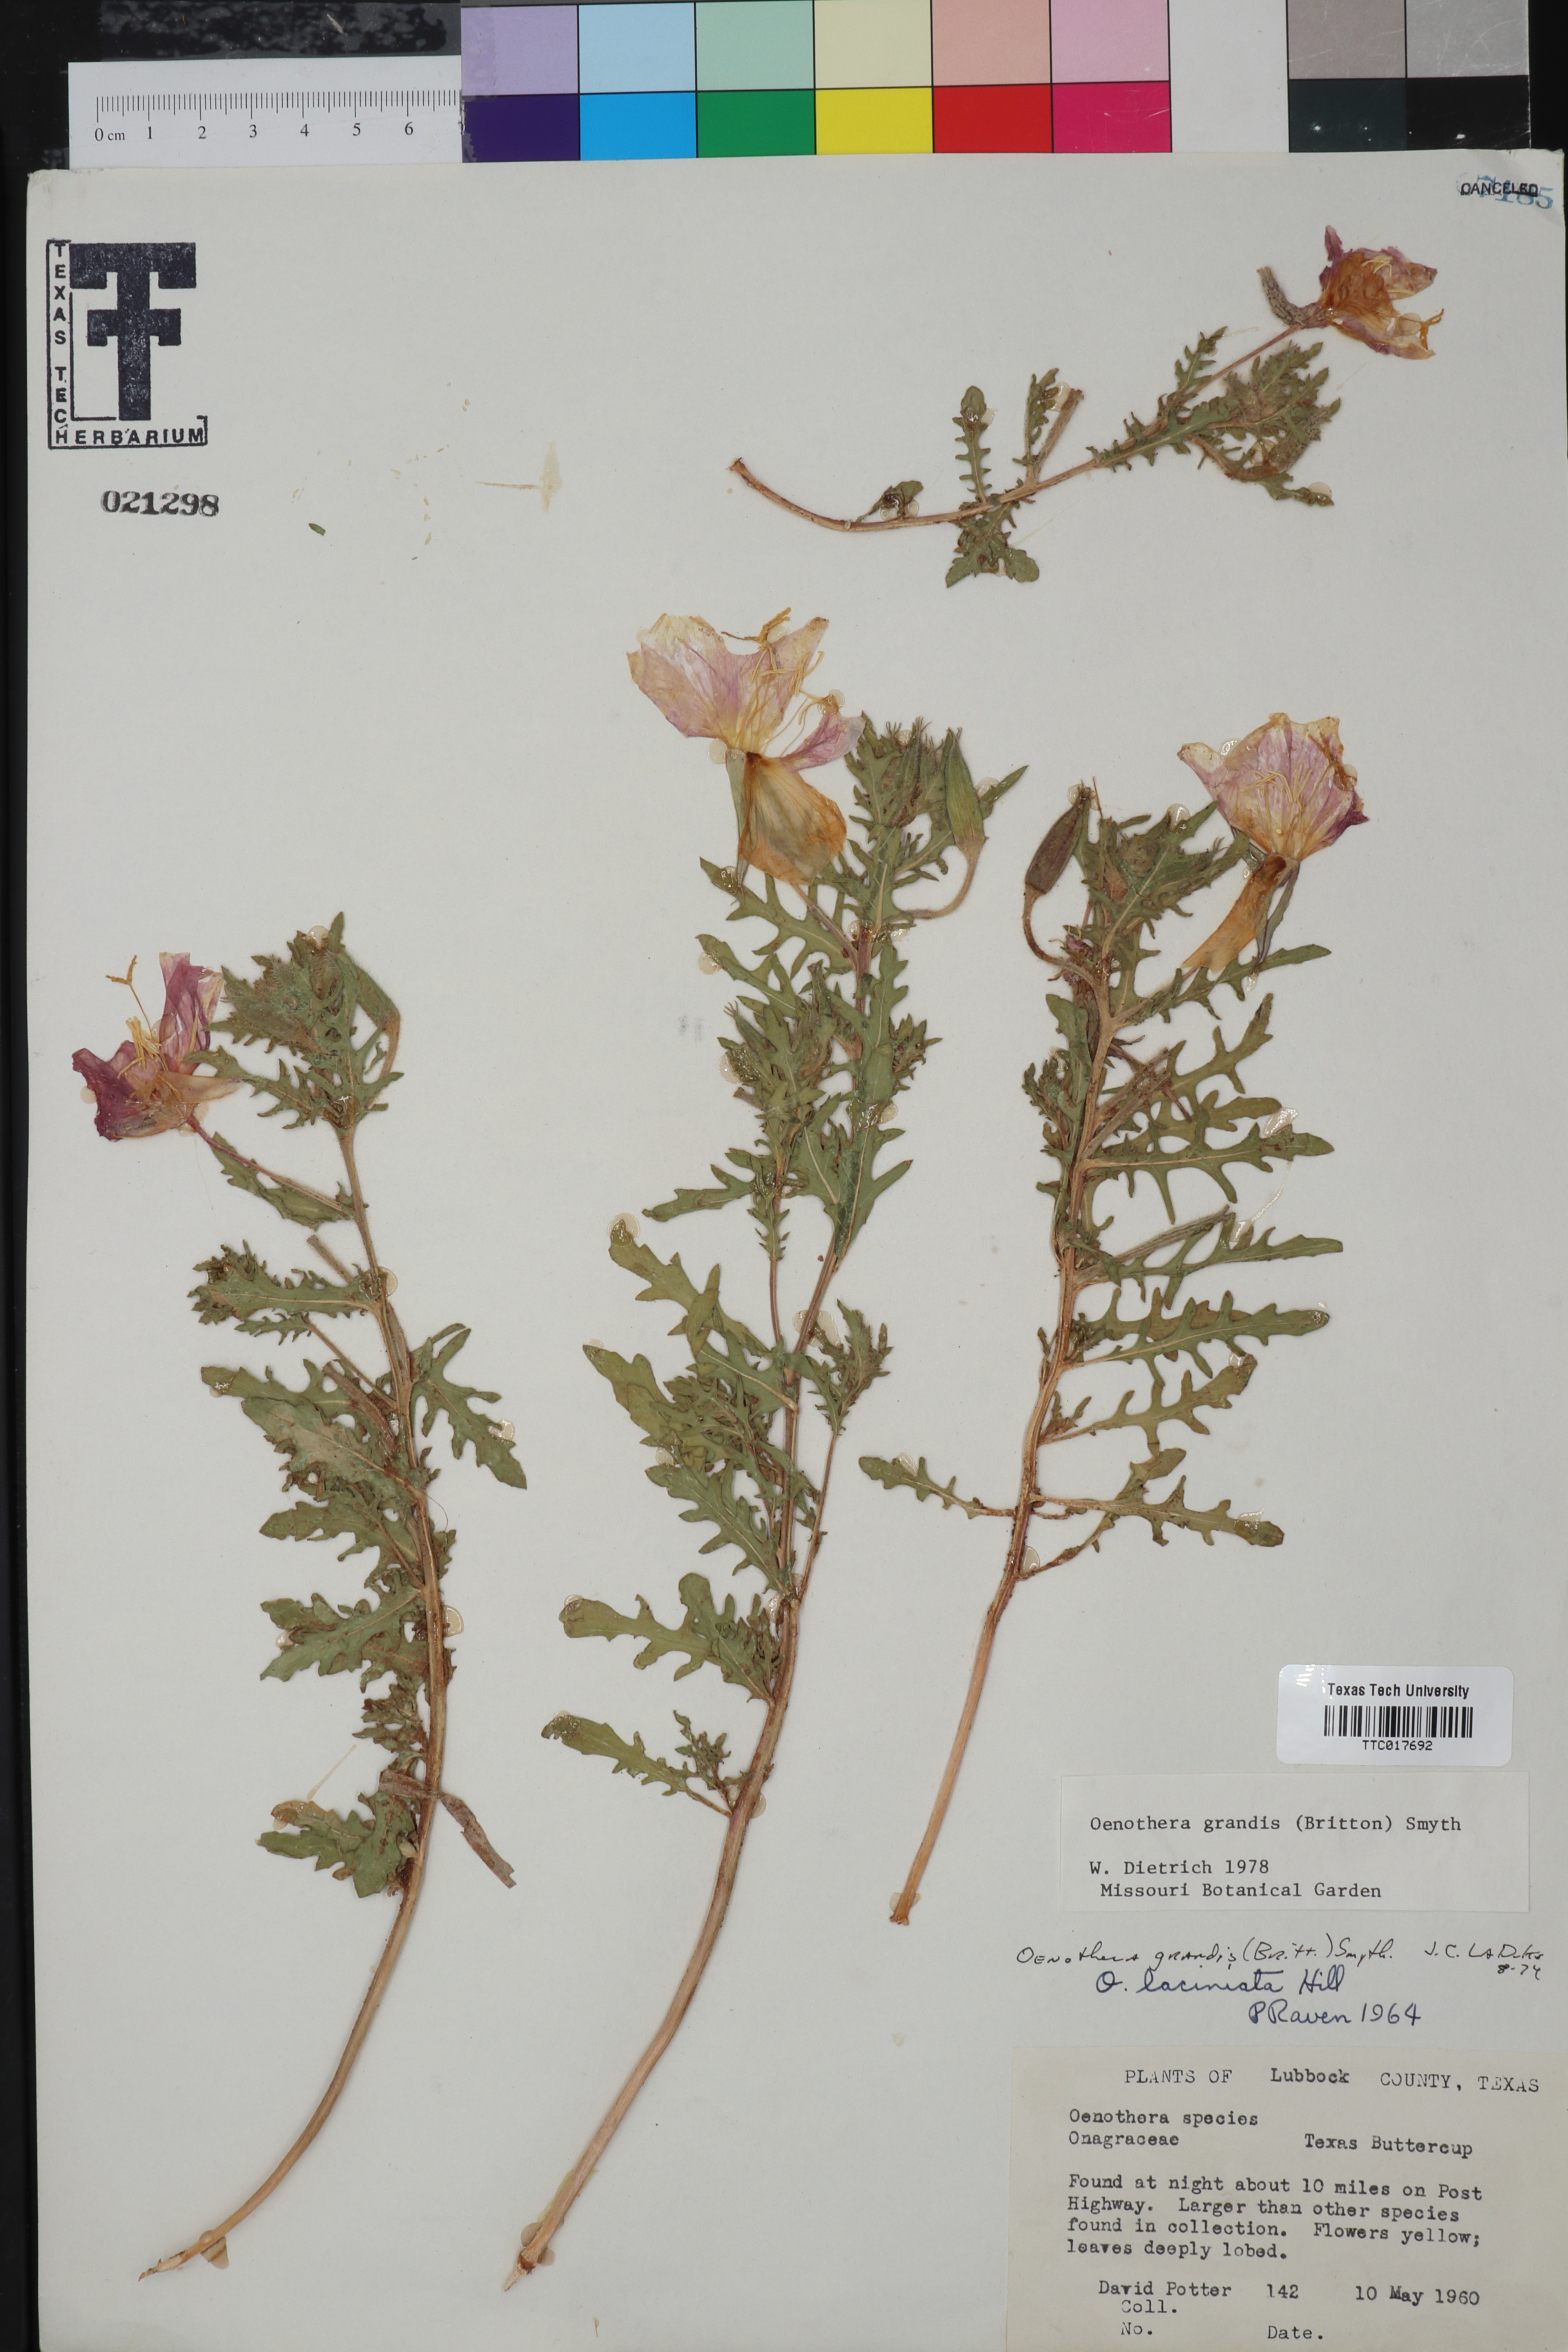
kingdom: Plantae
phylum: Tracheophyta
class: Magnoliopsida
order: Myrtales
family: Onagraceae
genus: Oenothera
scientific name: Oenothera grandis
